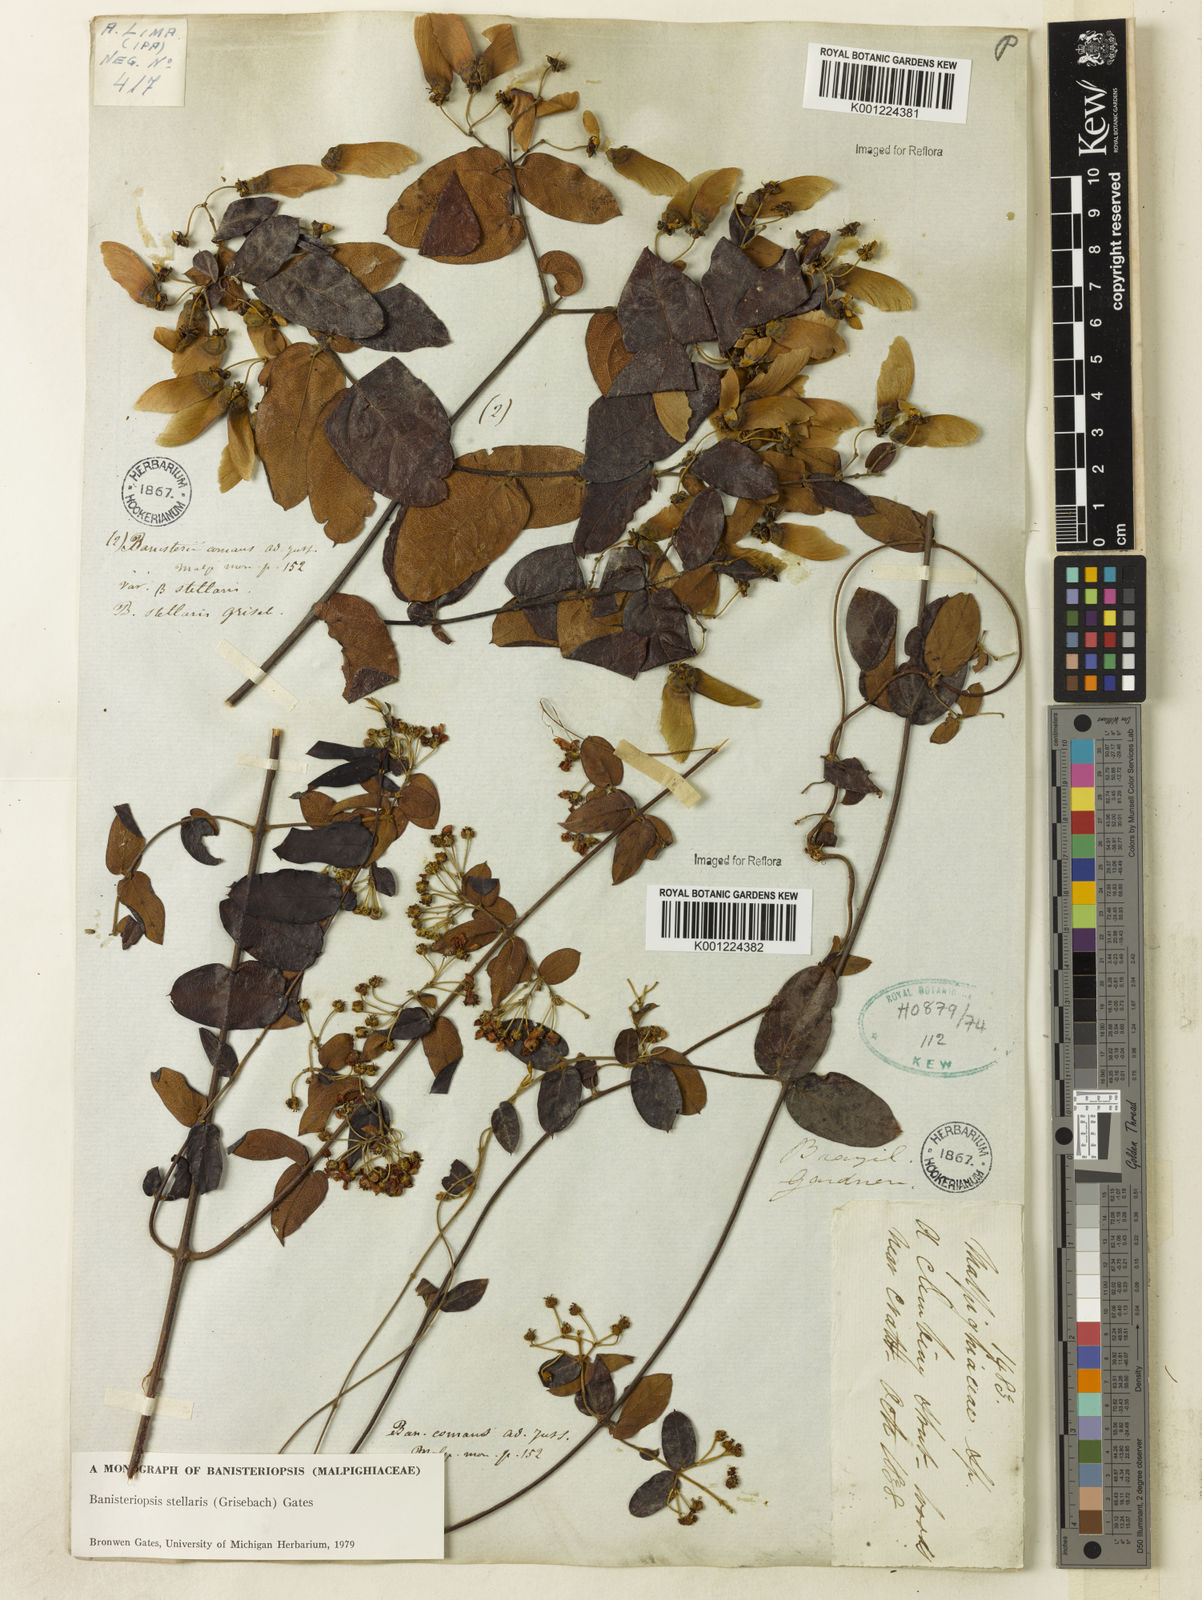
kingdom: Plantae
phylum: Tracheophyta
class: Magnoliopsida
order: Malpighiales
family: Malpighiaceae
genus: Banisteriopsis
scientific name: Banisteriopsis stellaris
